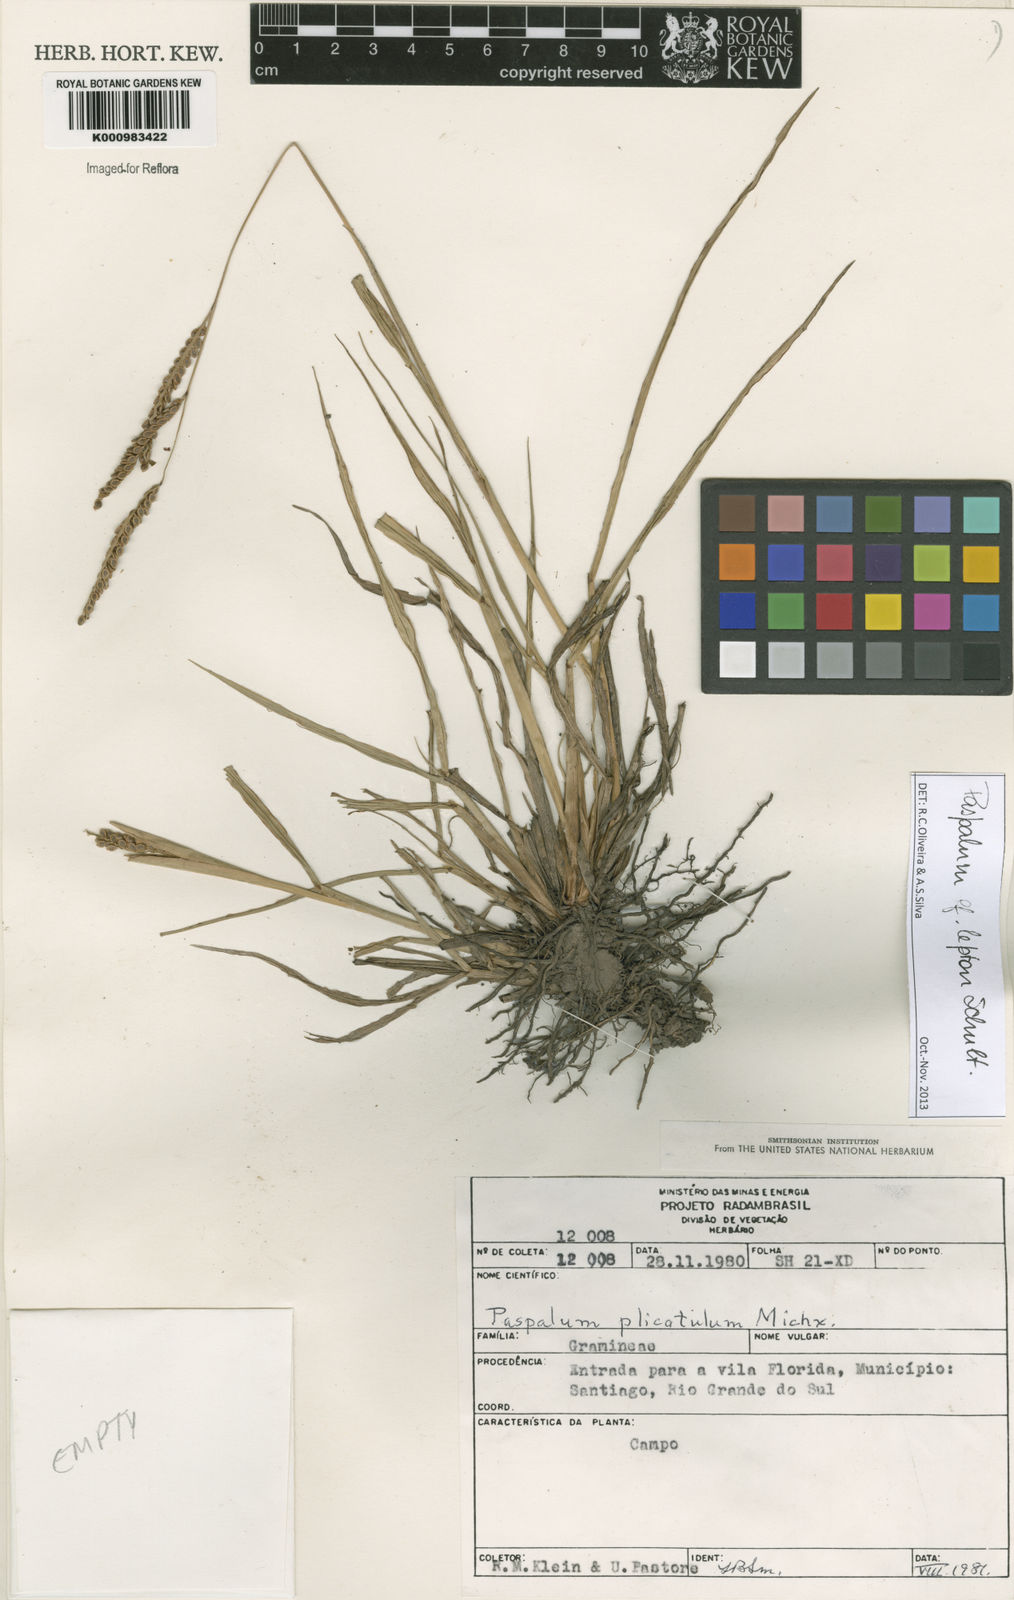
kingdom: Plantae
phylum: Tracheophyta
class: Liliopsida
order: Poales
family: Poaceae
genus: Paspalum
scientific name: Paspalum lepton
